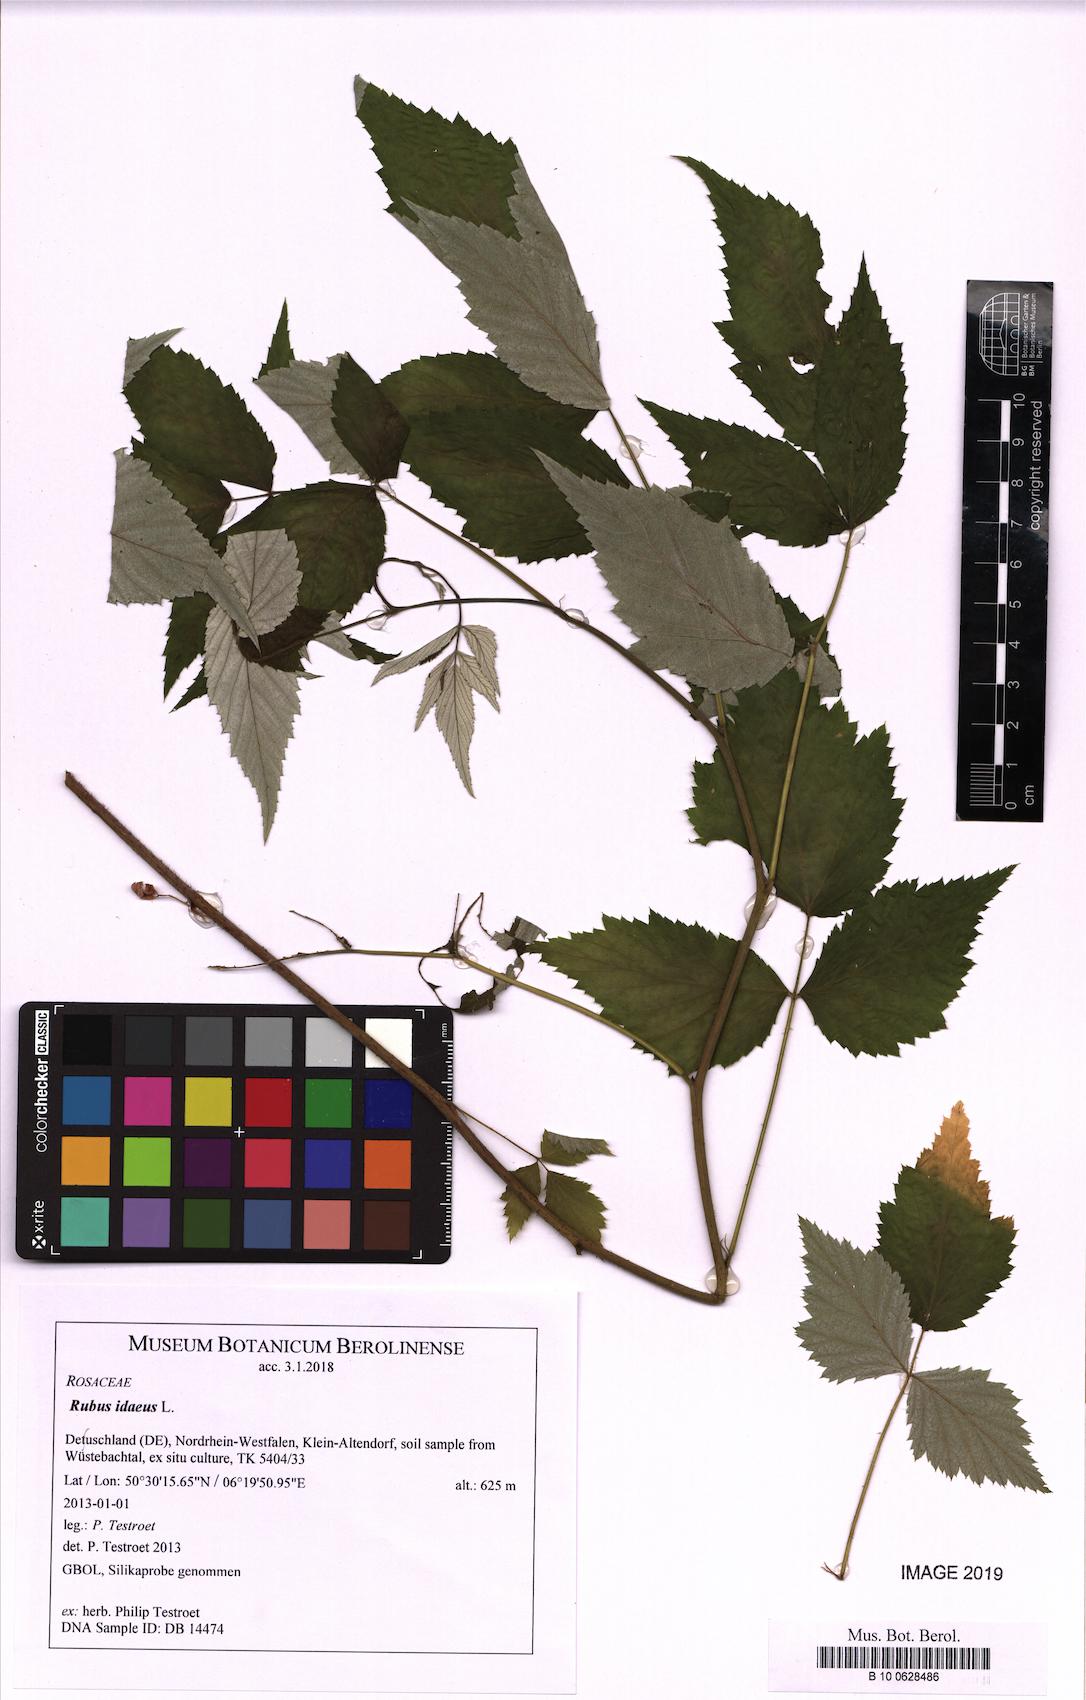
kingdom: Plantae
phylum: Tracheophyta
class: Magnoliopsida
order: Rosales
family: Rosaceae
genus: Rubus
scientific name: Rubus idaeus
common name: Raspberry
